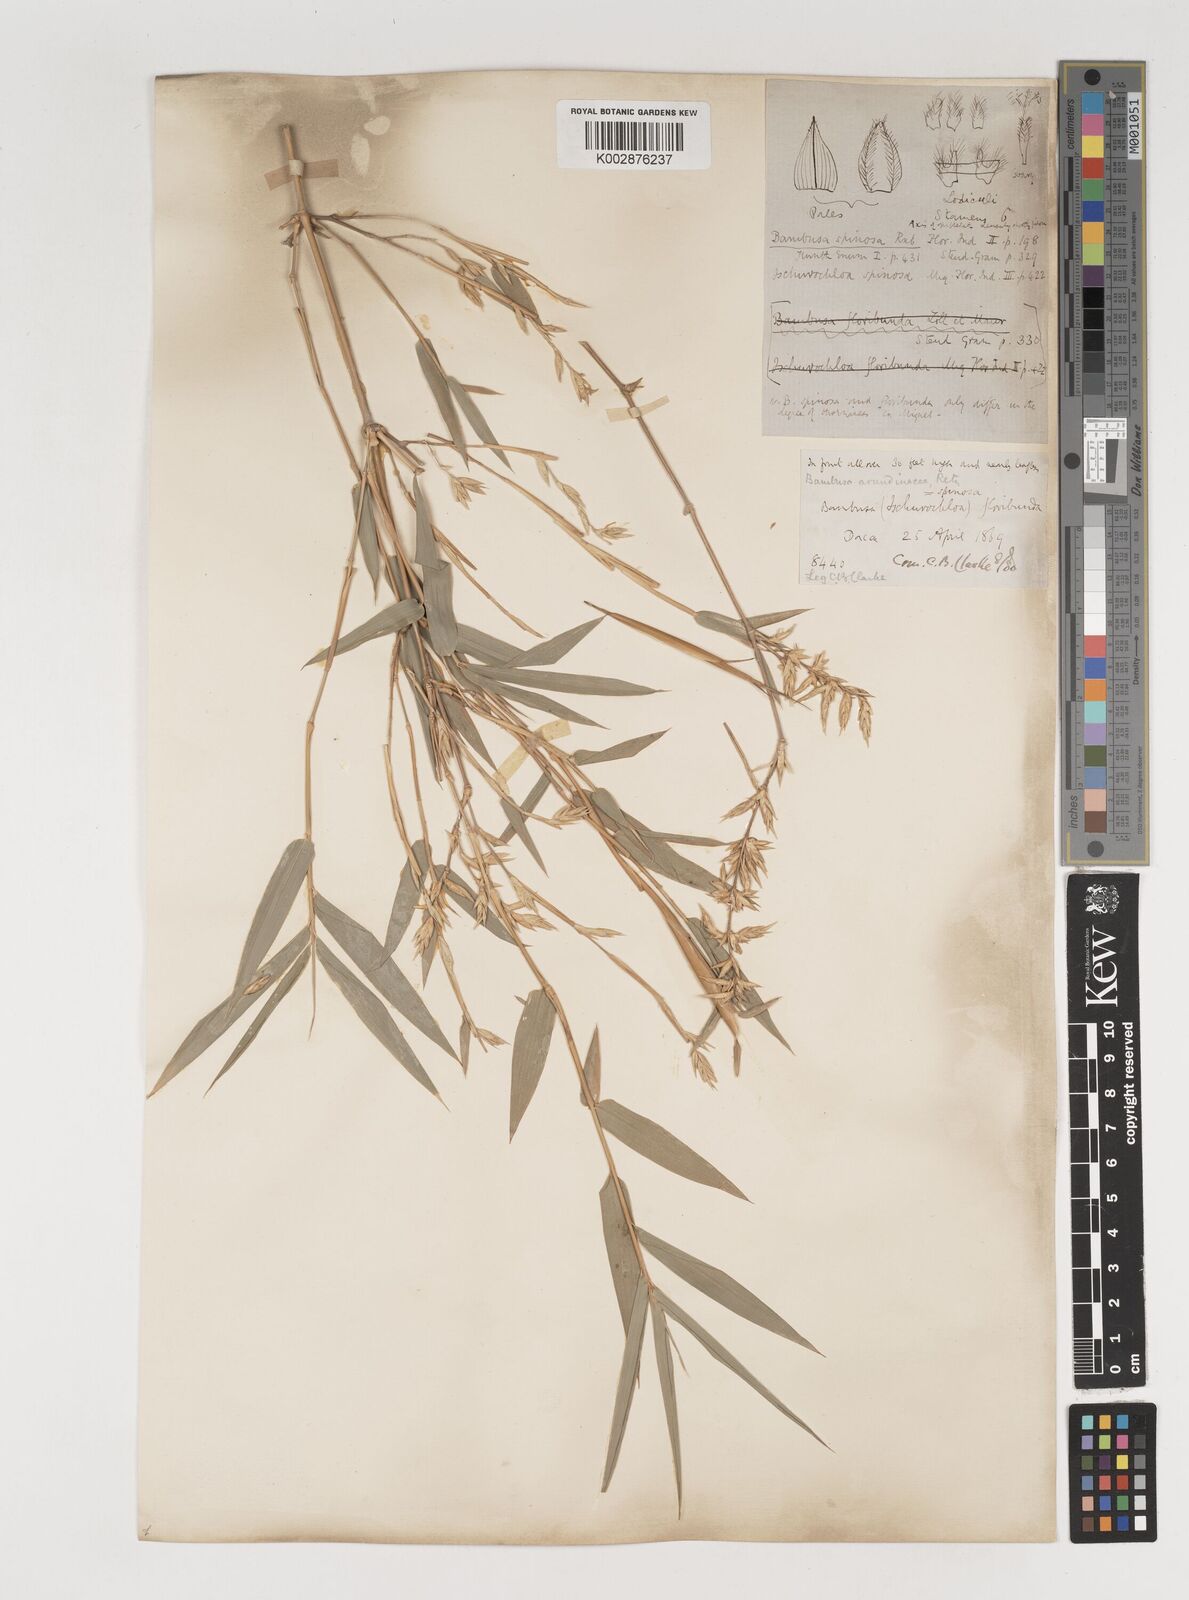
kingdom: Plantae
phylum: Tracheophyta
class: Liliopsida
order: Poales
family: Poaceae
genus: Bambusa
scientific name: Bambusa bambos
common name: Indian thorny bamboo
